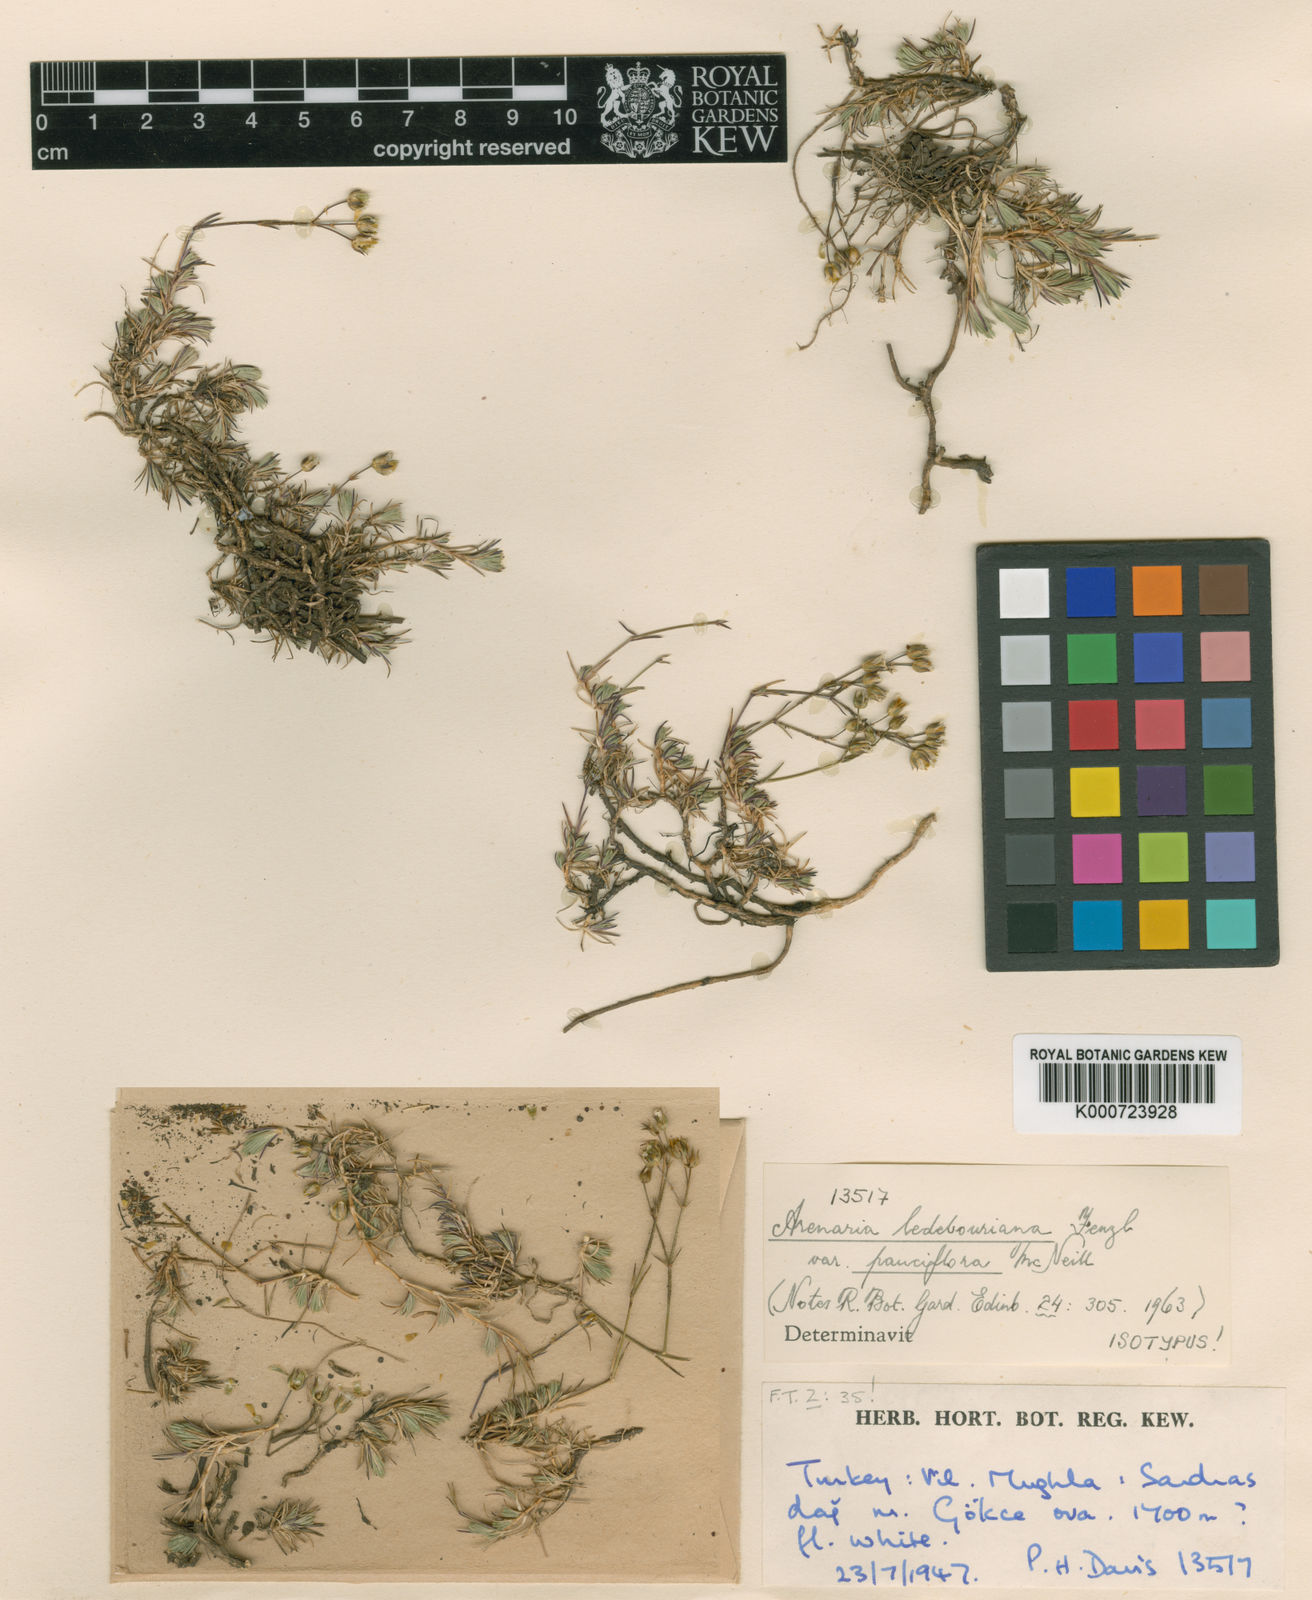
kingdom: Plantae
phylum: Tracheophyta
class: Magnoliopsida
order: Caryophyllales
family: Caryophyllaceae
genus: Eremogone
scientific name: Eremogone ledebouriana
